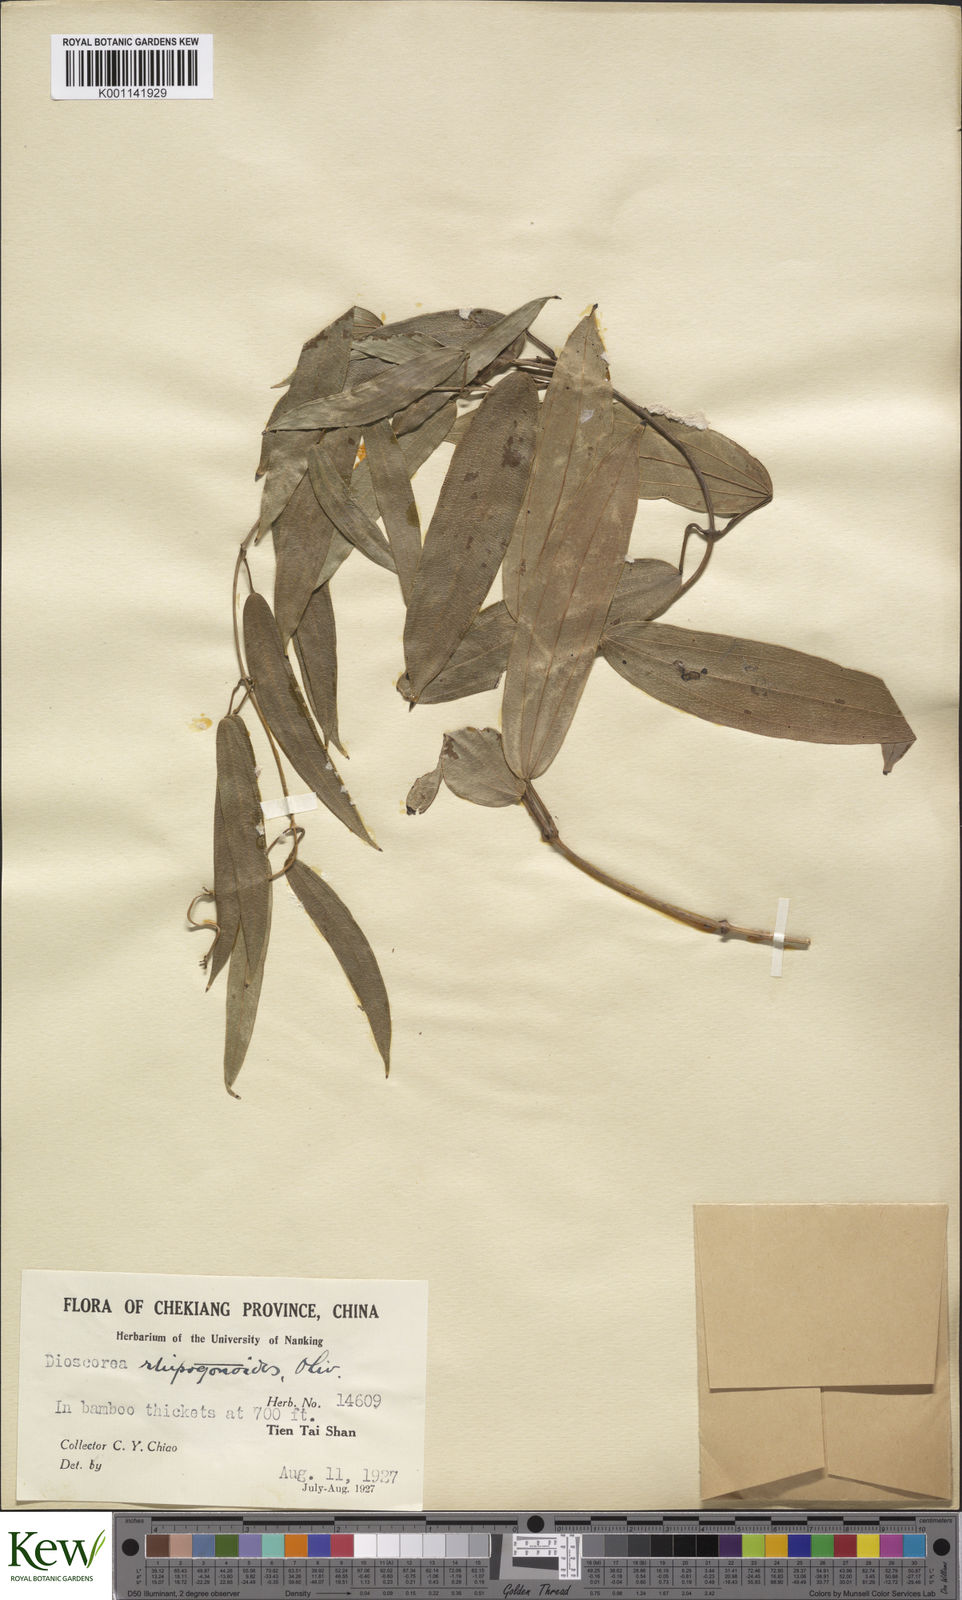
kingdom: Plantae
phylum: Tracheophyta
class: Liliopsida
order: Dioscoreales
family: Dioscoreaceae
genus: Dioscorea
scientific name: Dioscorea cirrhosa
